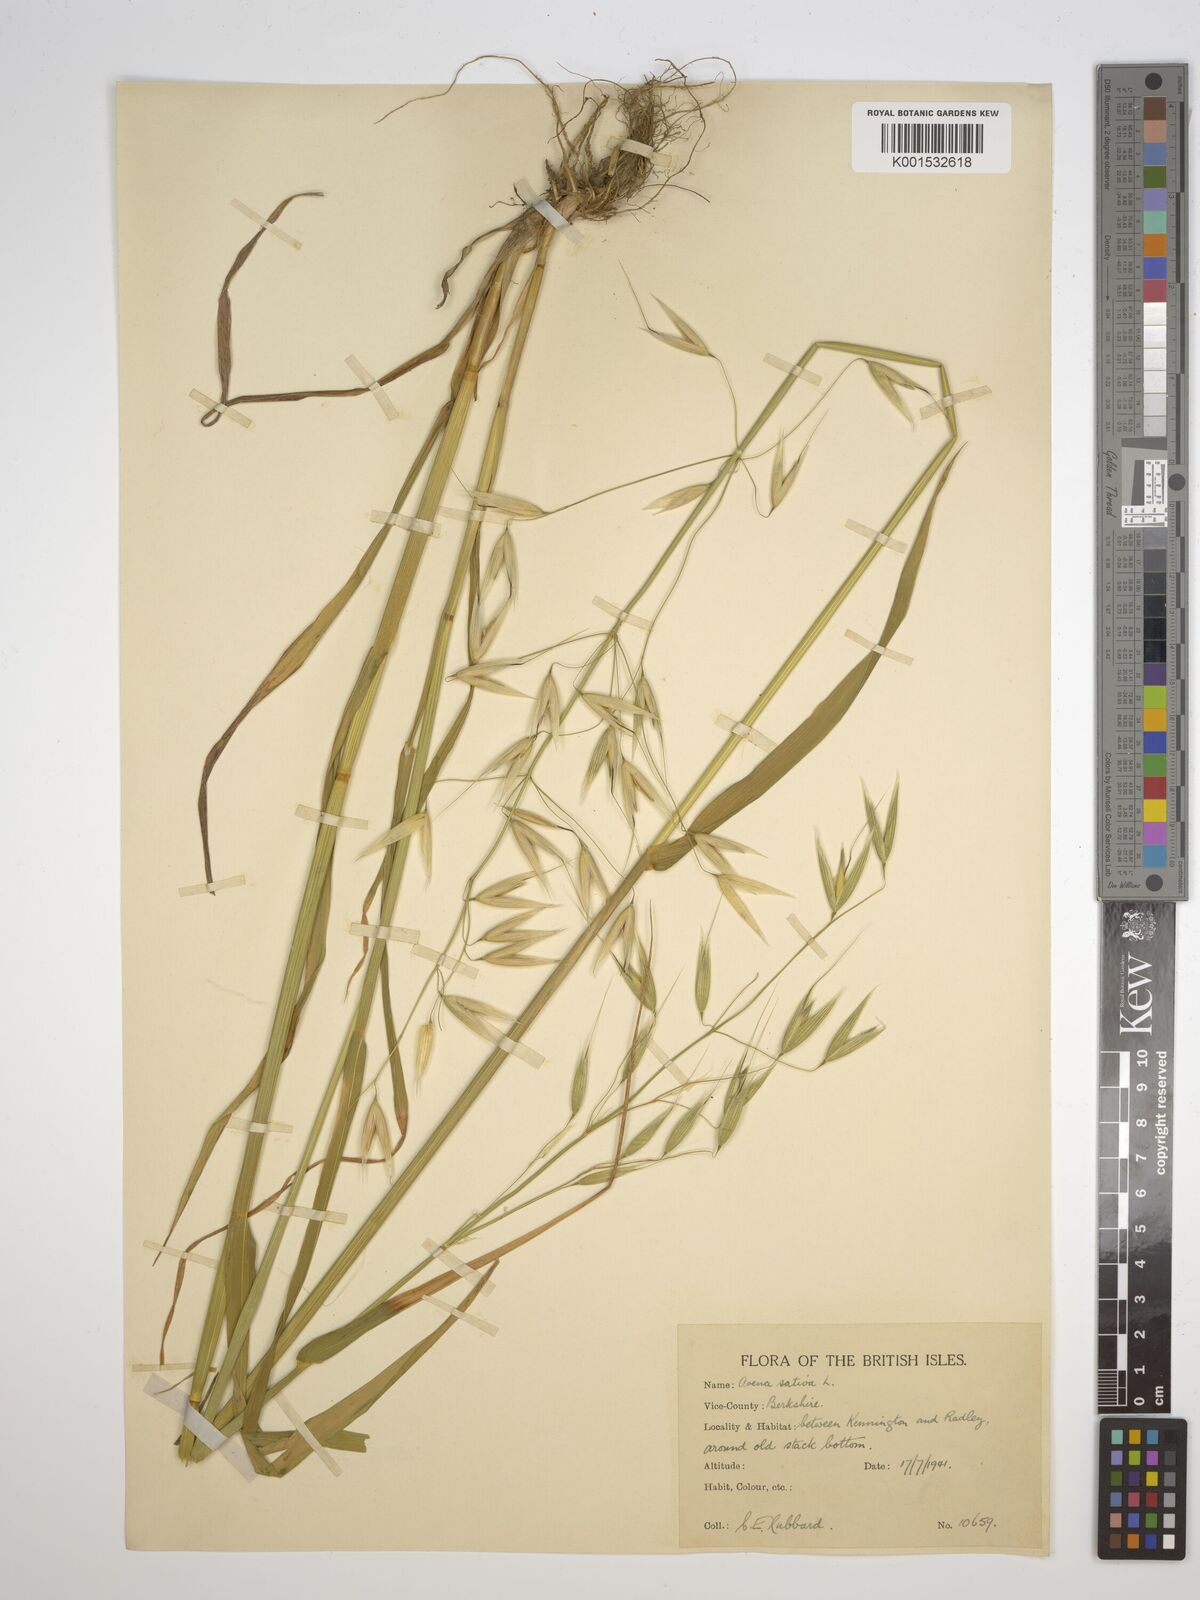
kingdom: Plantae
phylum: Tracheophyta
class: Liliopsida
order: Poales
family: Poaceae
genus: Avena
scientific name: Avena sativa
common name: Oat
